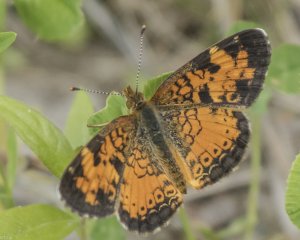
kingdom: Animalia
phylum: Arthropoda
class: Insecta
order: Lepidoptera
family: Nymphalidae
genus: Phyciodes
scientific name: Phyciodes tharos
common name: Northern Crescent
